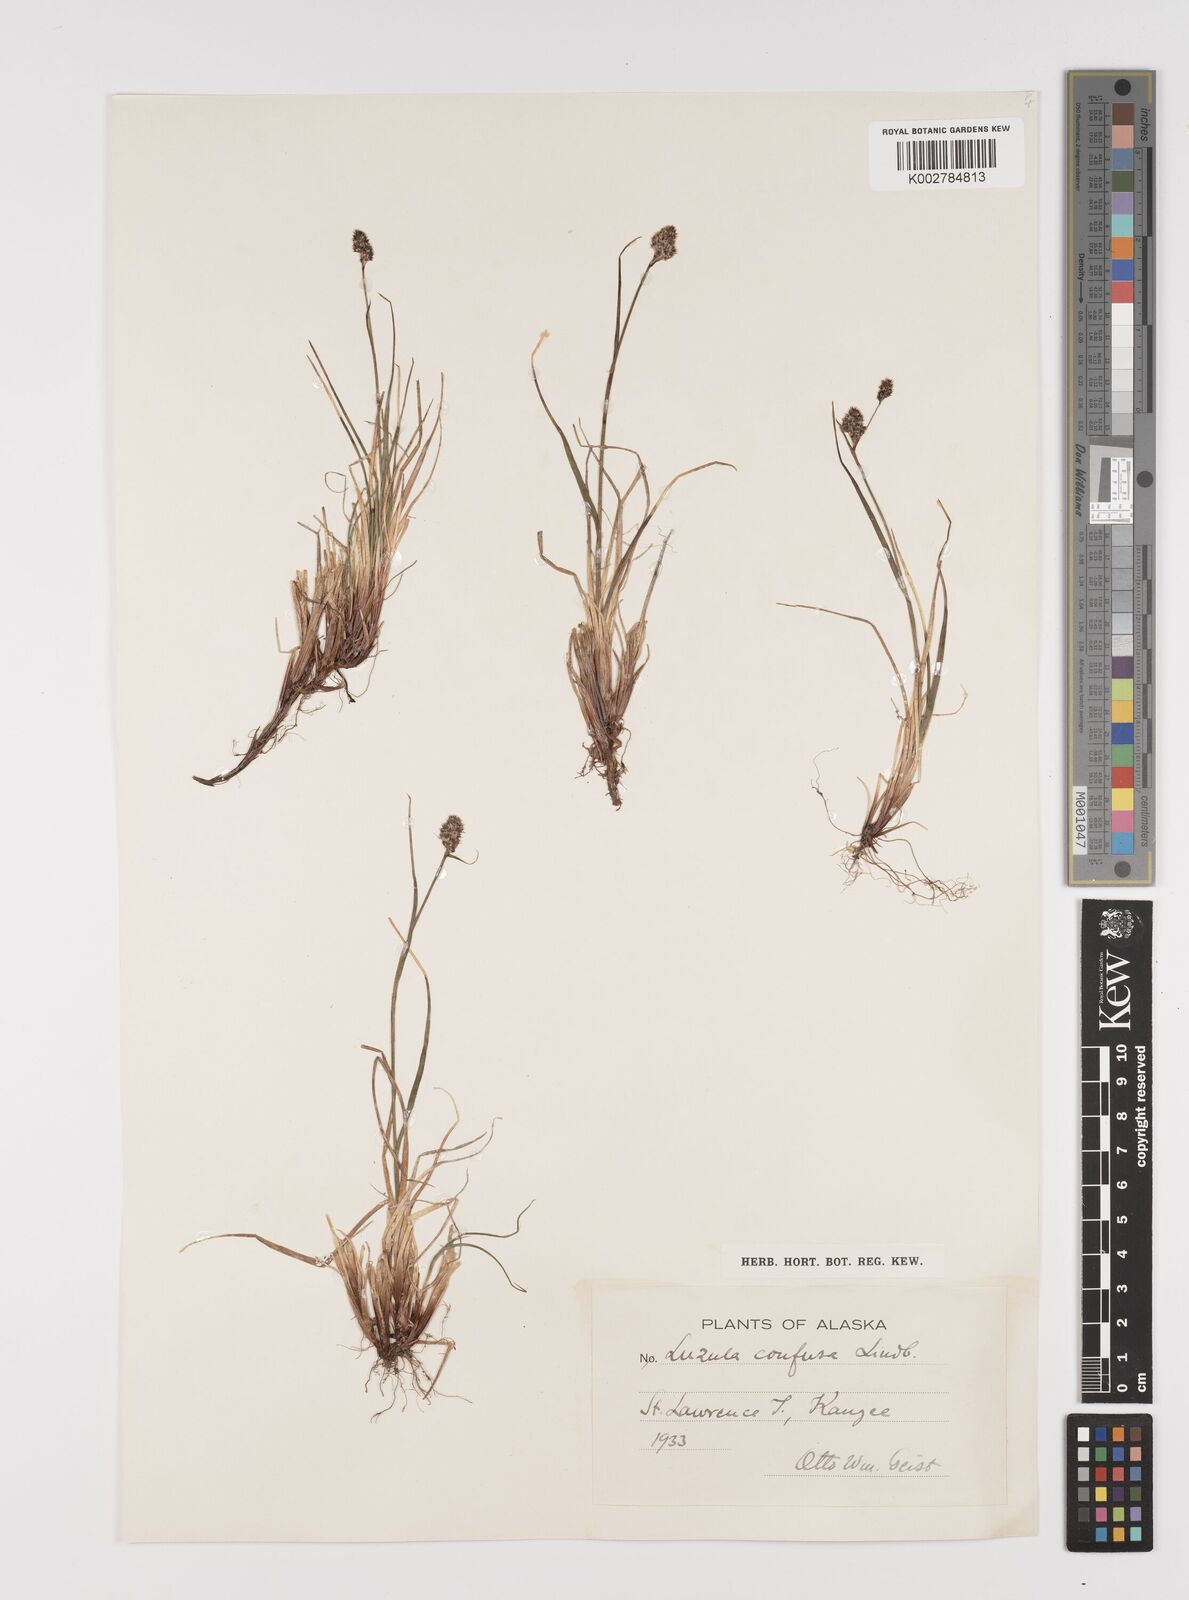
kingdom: Plantae
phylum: Tracheophyta
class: Liliopsida
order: Poales
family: Juncaceae
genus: Luzula
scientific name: Luzula confusa
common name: Northern wood rush
